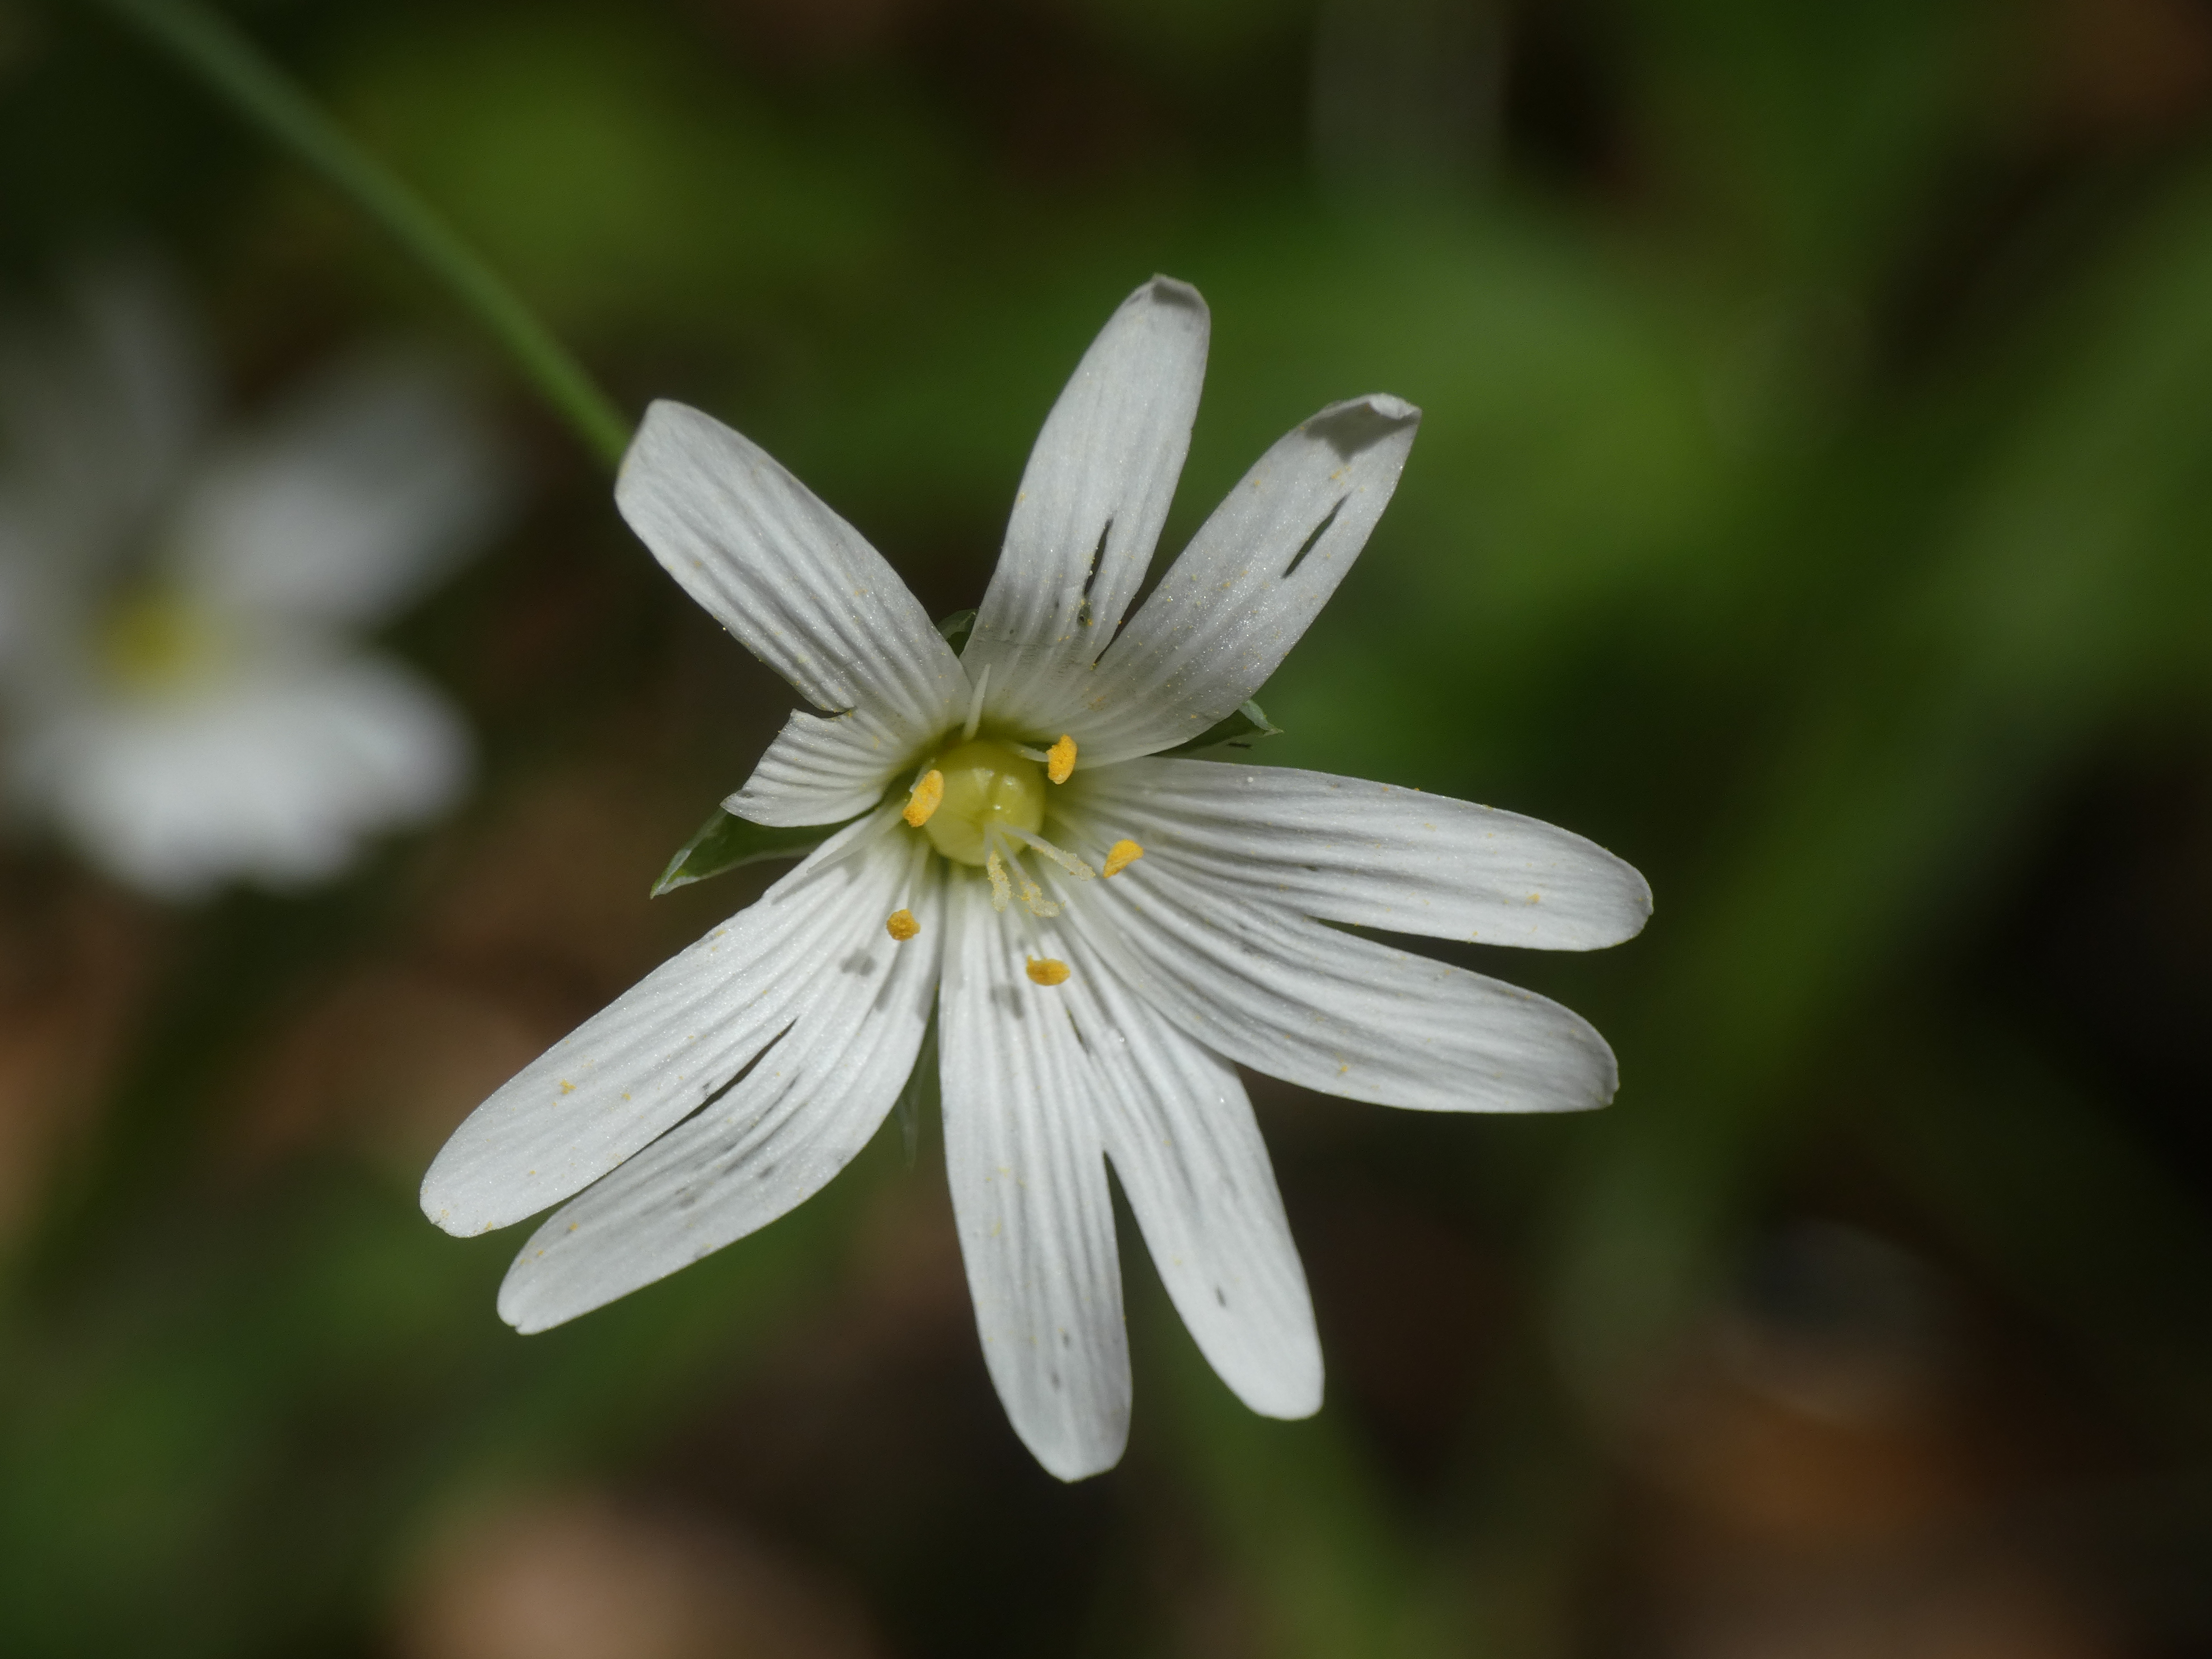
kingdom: Plantae
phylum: Tracheophyta
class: Magnoliopsida
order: Caryophyllales
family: Caryophyllaceae
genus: Rabelera
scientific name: Rabelera holostea
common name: Stor fladstjerne
